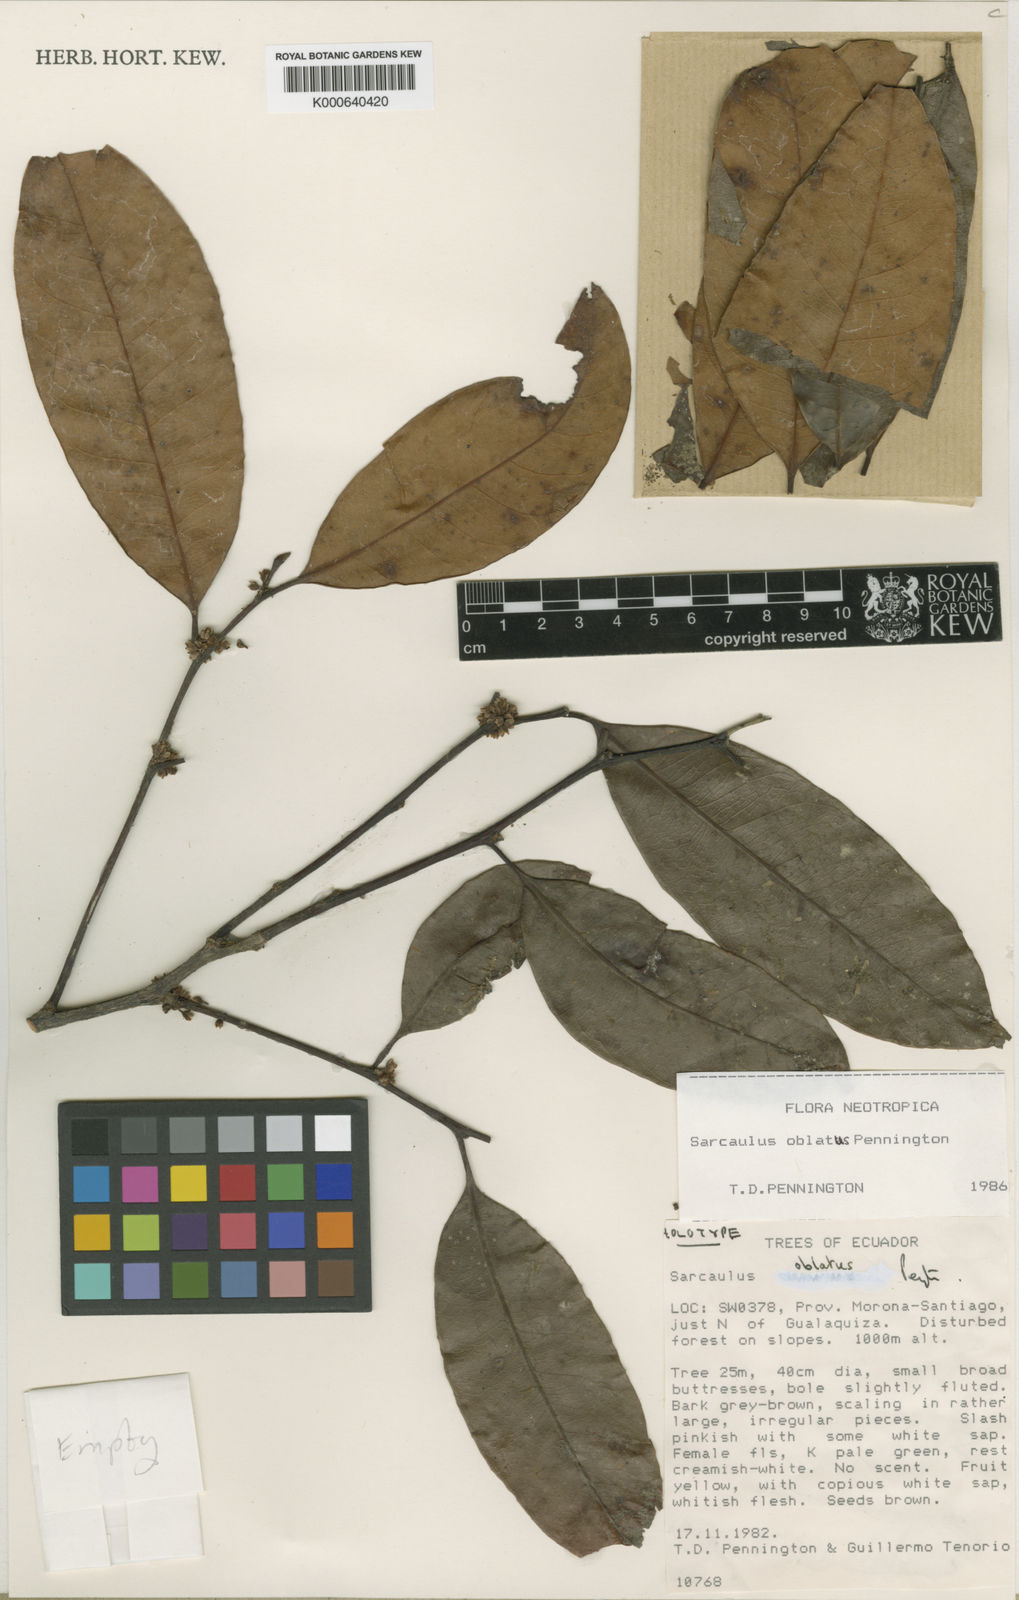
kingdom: Plantae
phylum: Tracheophyta
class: Magnoliopsida
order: Ericales
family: Sapotaceae
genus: Sarcaulus
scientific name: Sarcaulus oblatus
